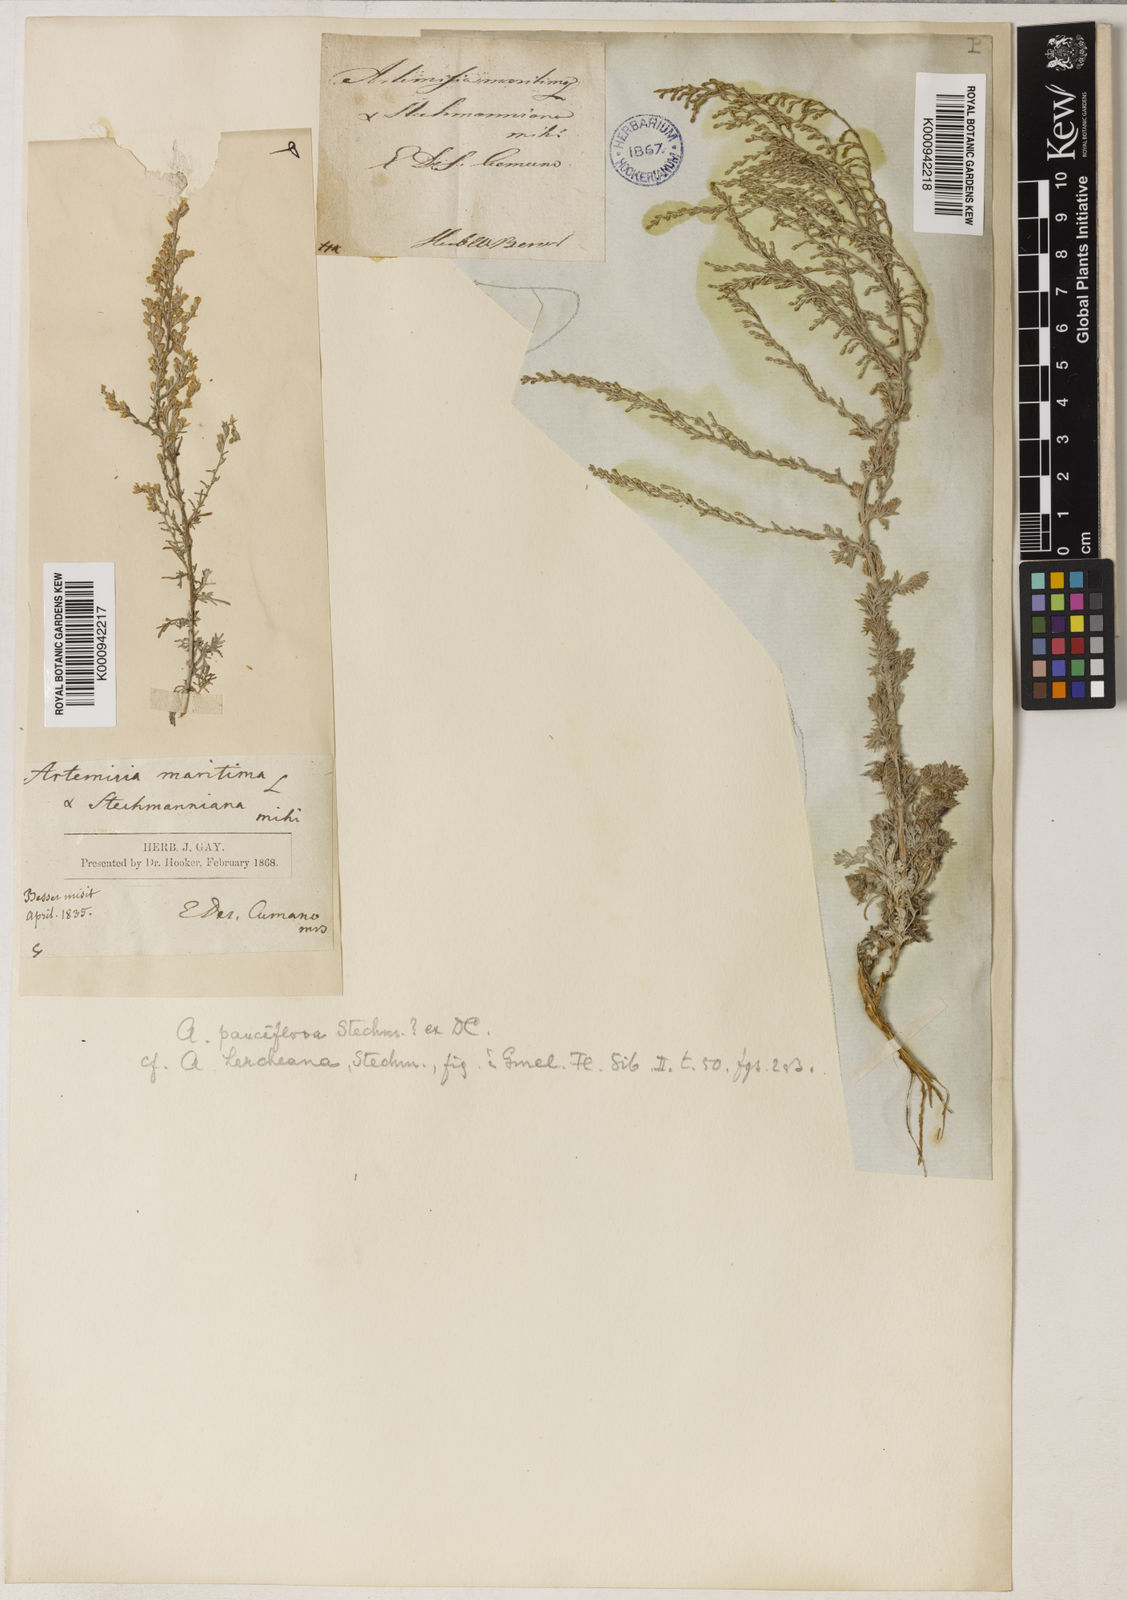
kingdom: Plantae
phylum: Tracheophyta
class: Magnoliopsida
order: Asterales
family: Asteraceae
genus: Artemisia
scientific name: Artemisia pauciflora
